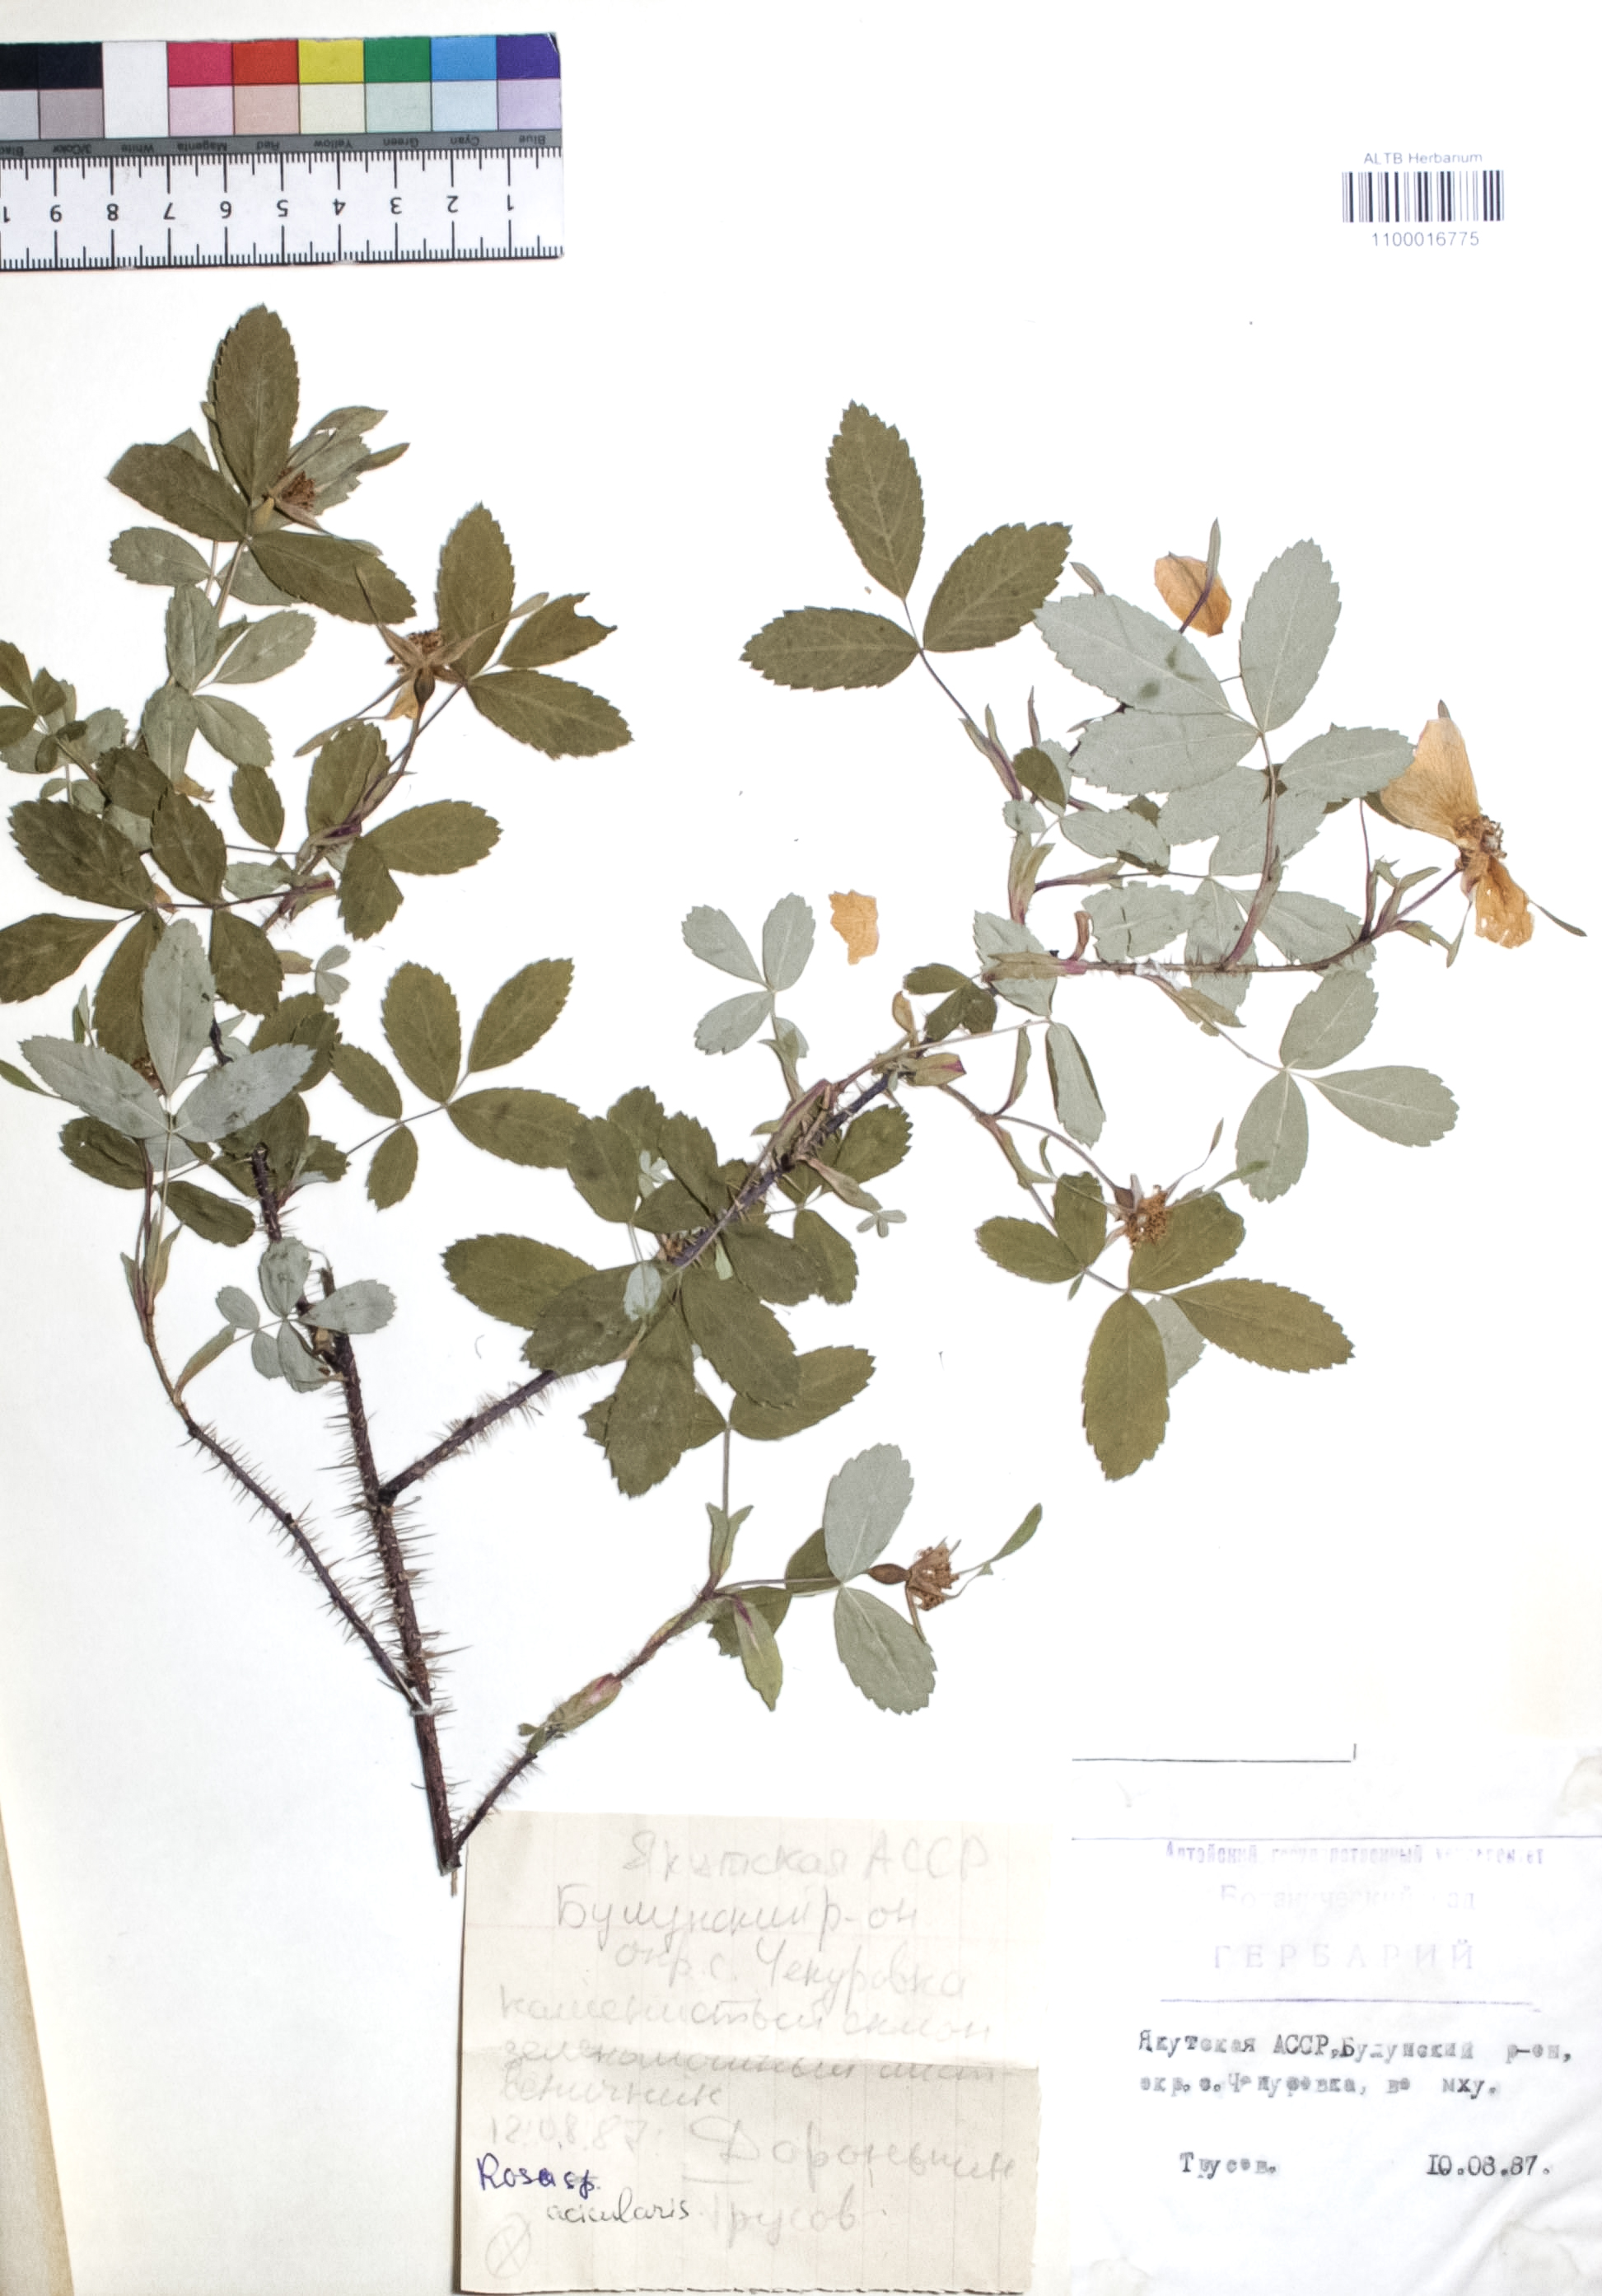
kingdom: Plantae
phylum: Tracheophyta
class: Magnoliopsida
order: Rosales
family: Rosaceae
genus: Rosa
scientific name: Rosa acicularis
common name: Prickly rose
